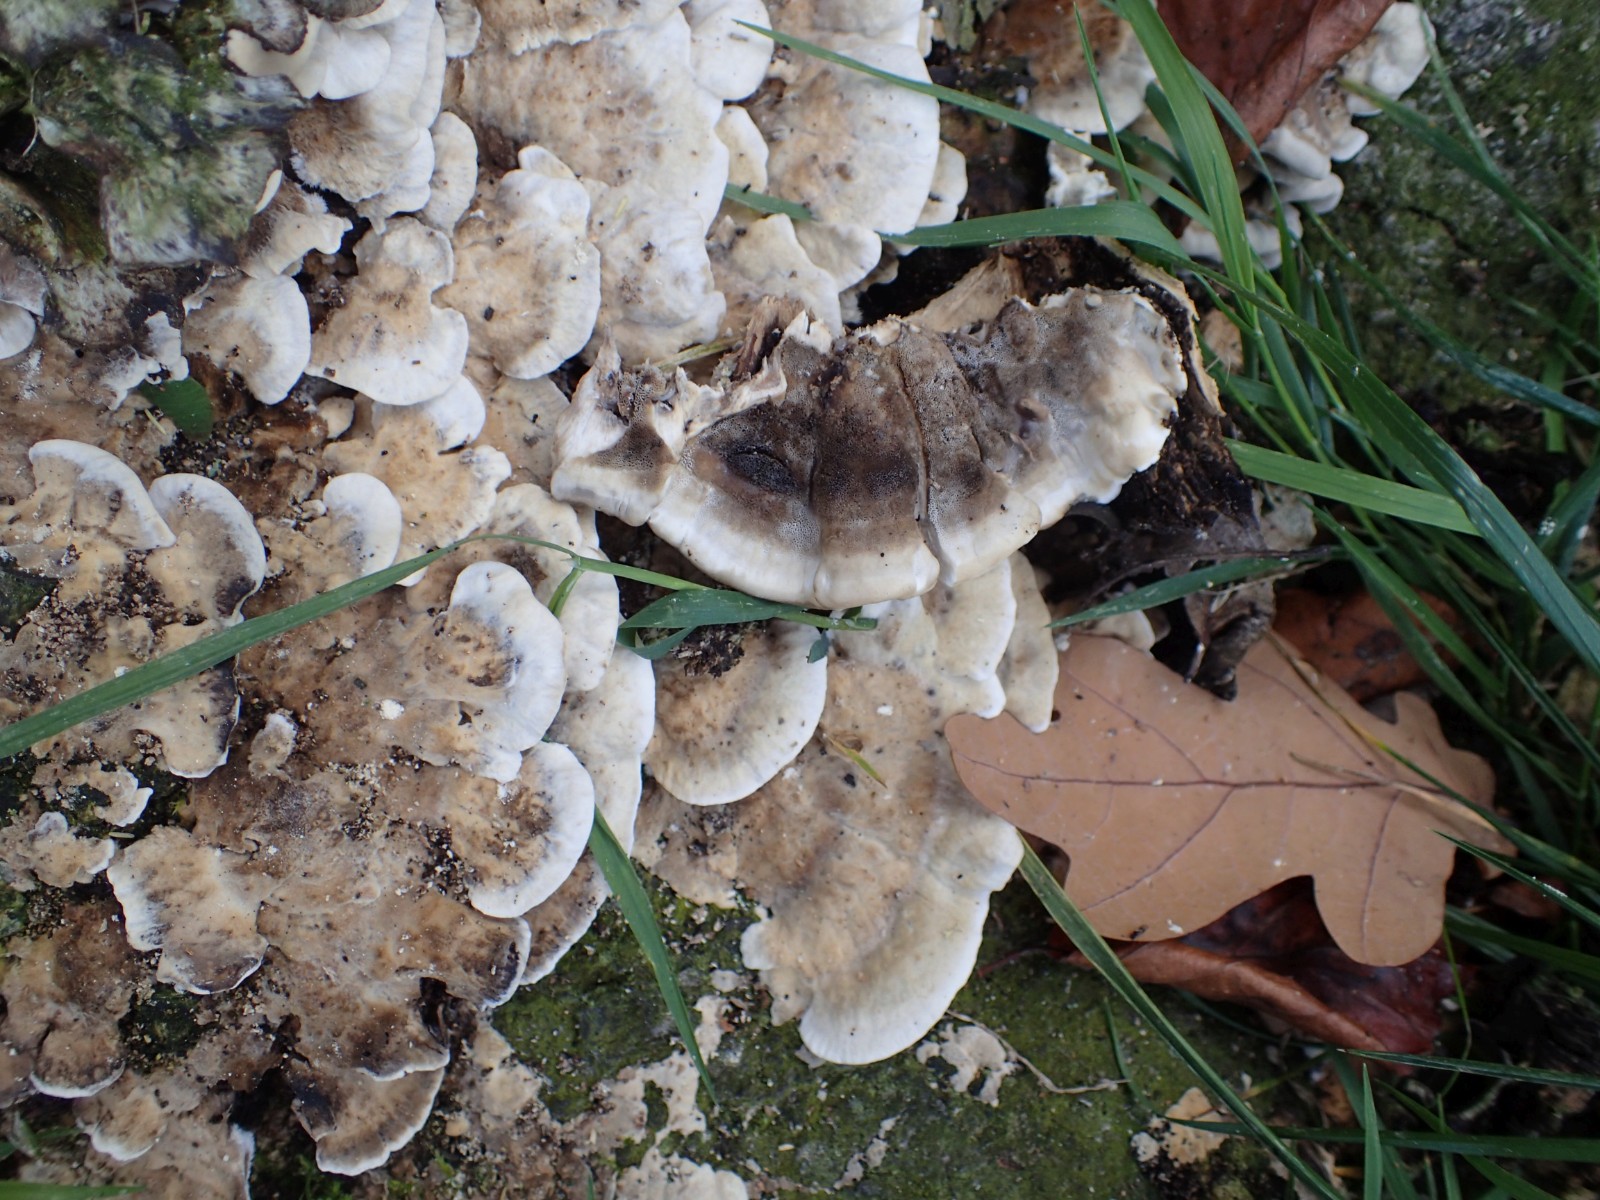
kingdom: Fungi
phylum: Basidiomycota
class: Agaricomycetes
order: Polyporales
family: Phanerochaetaceae
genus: Bjerkandera
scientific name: Bjerkandera adusta
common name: sveden sodporesvamp
